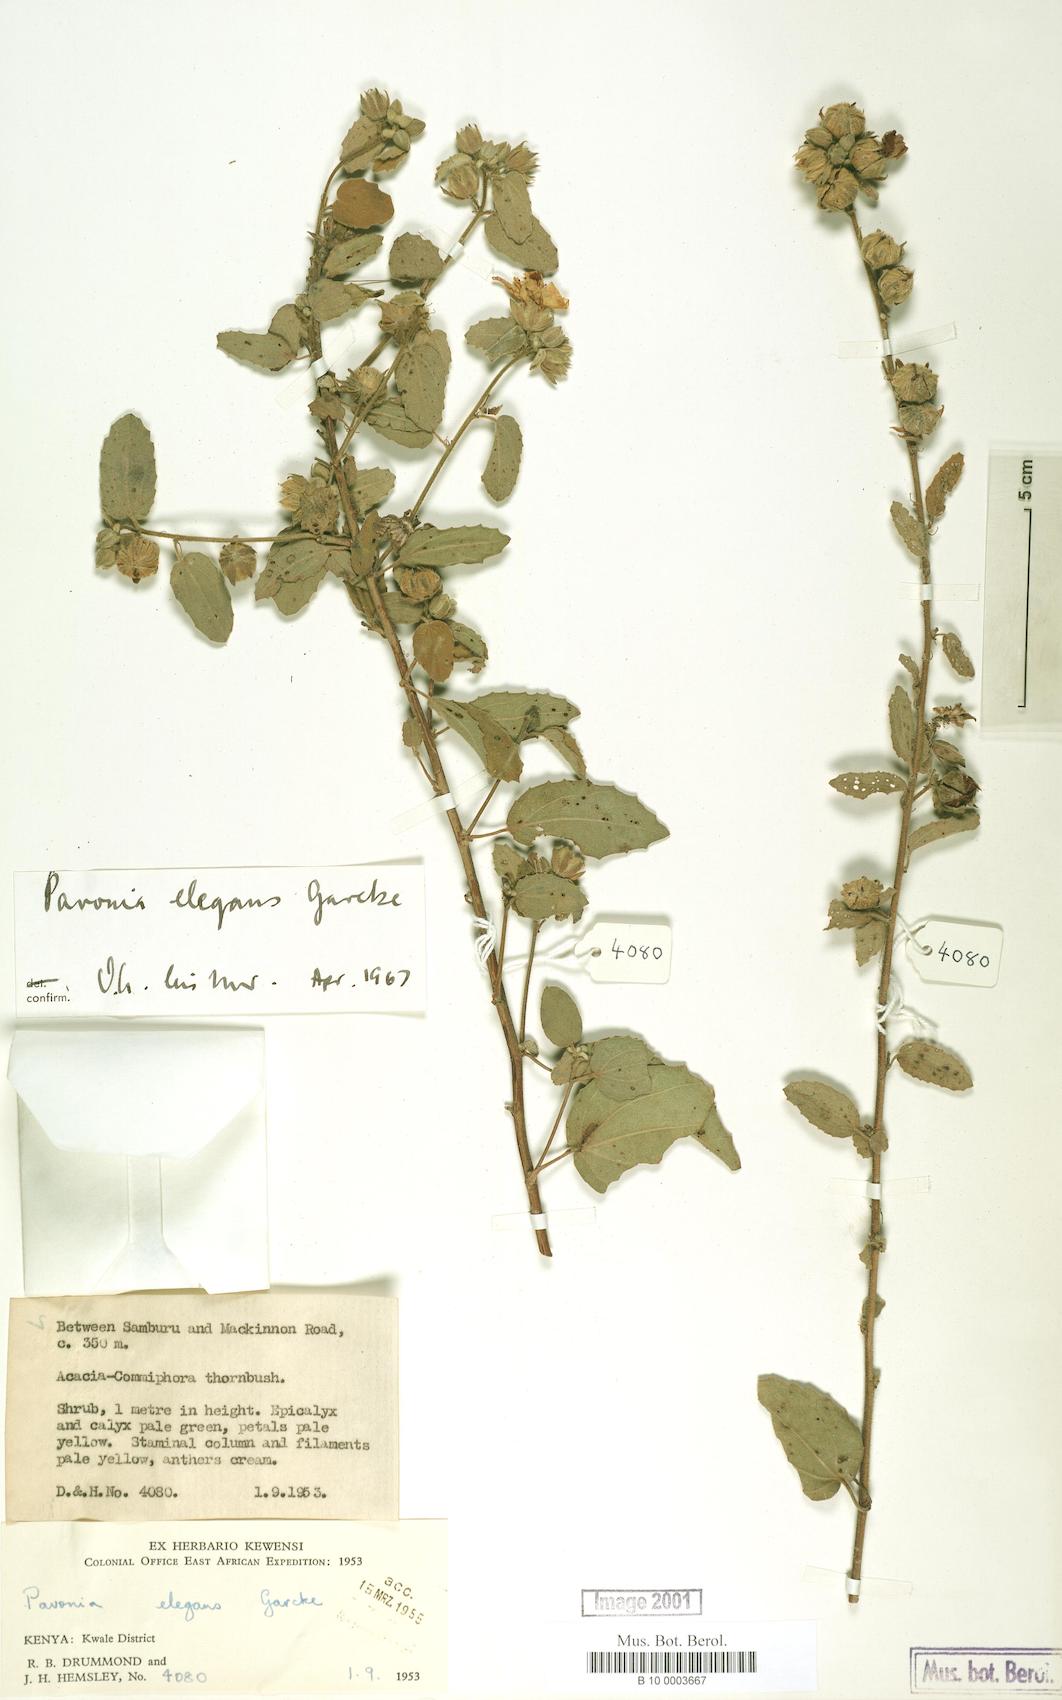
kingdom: Plantae
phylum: Tracheophyta
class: Magnoliopsida
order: Malvales
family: Malvaceae
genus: Pavonia
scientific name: Pavonia elegans
